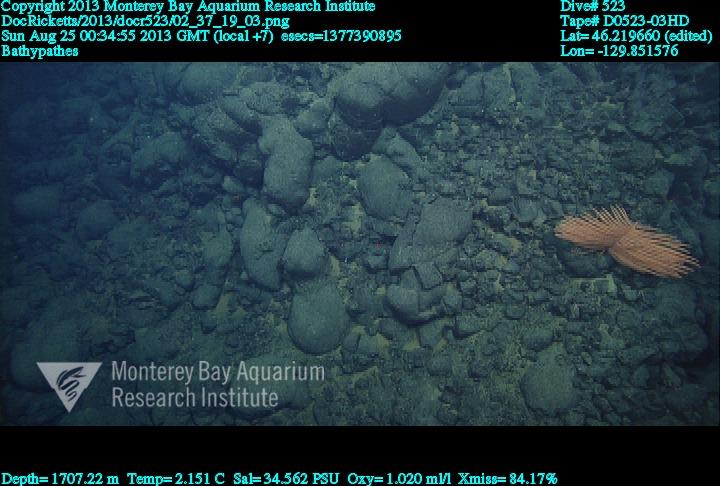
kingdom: Animalia
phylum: Cnidaria
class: Anthozoa
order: Antipatharia
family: Schizopathidae
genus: Bathypathes
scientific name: Bathypathes
